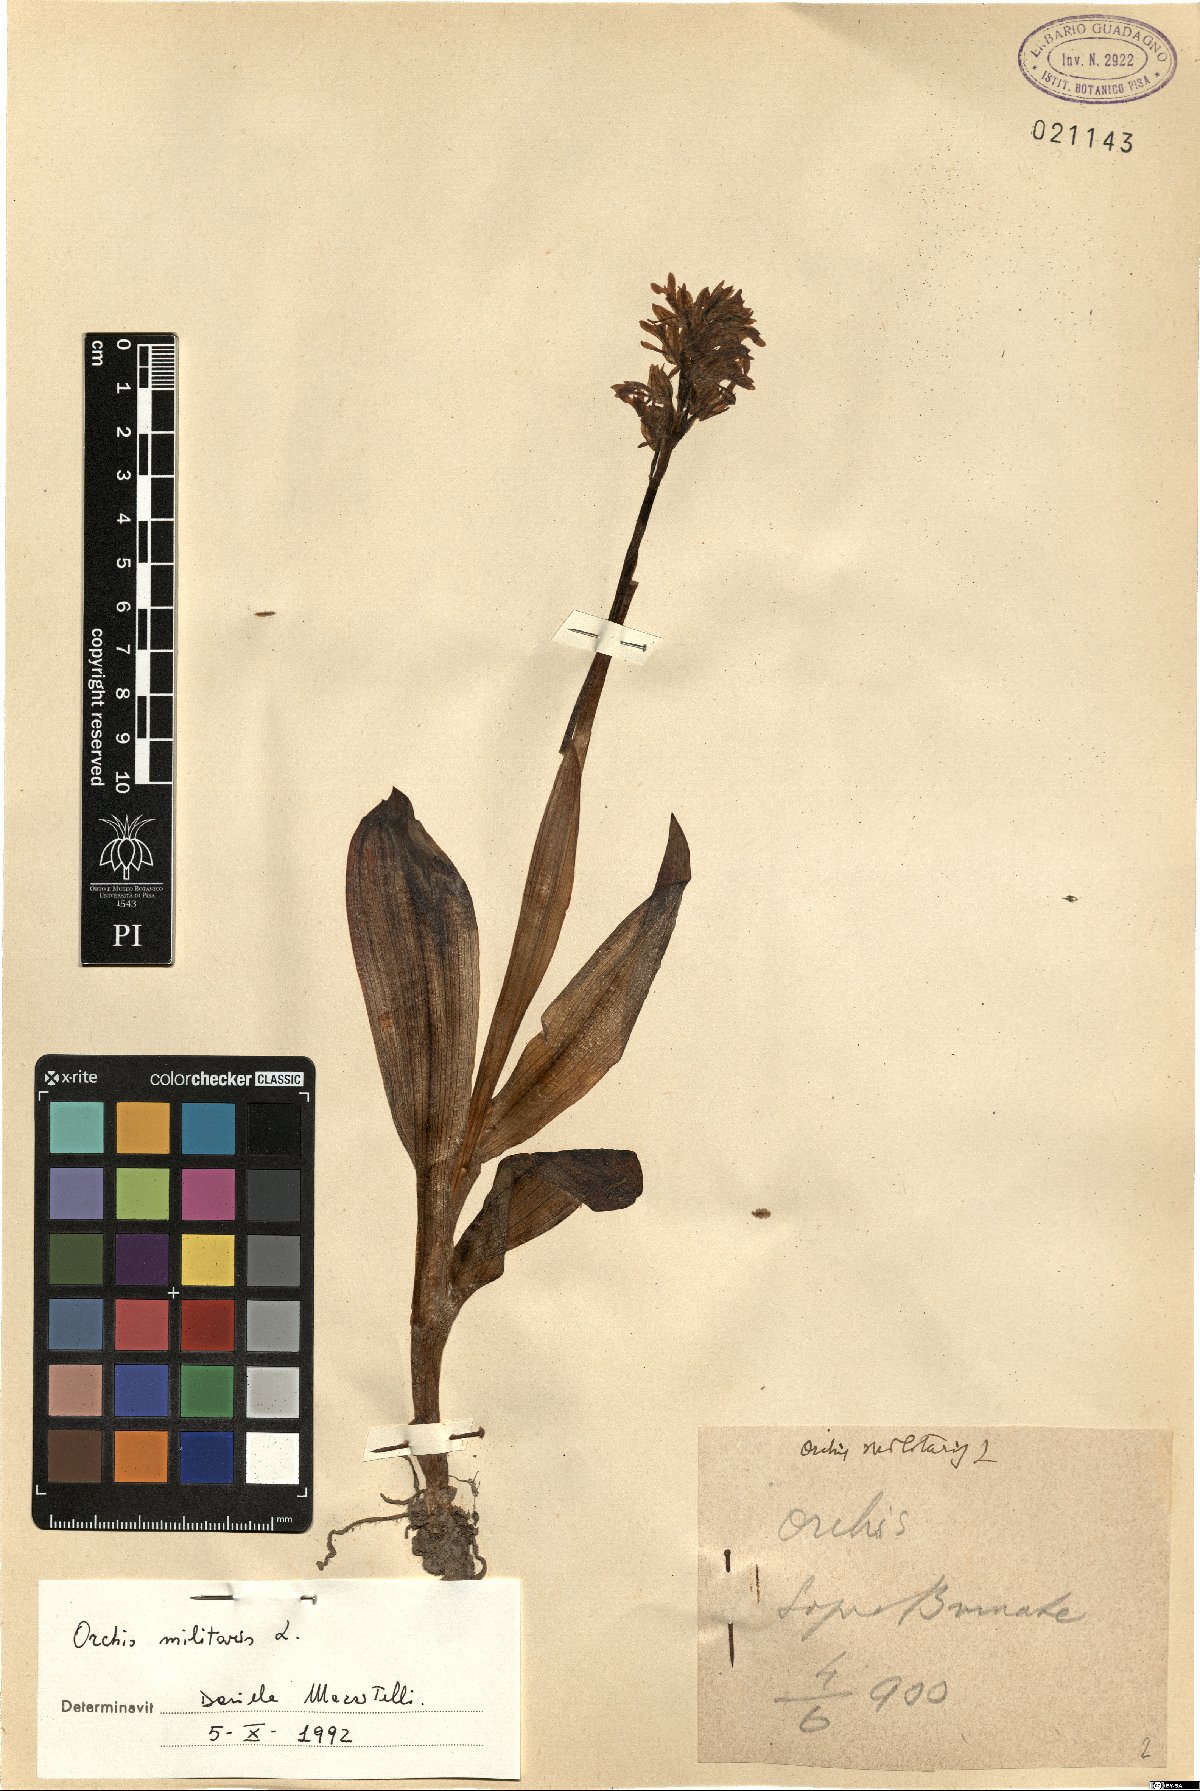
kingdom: Plantae
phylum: Tracheophyta
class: Liliopsida
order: Asparagales
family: Orchidaceae
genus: Orchis
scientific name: Orchis militaris
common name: Military orchid
